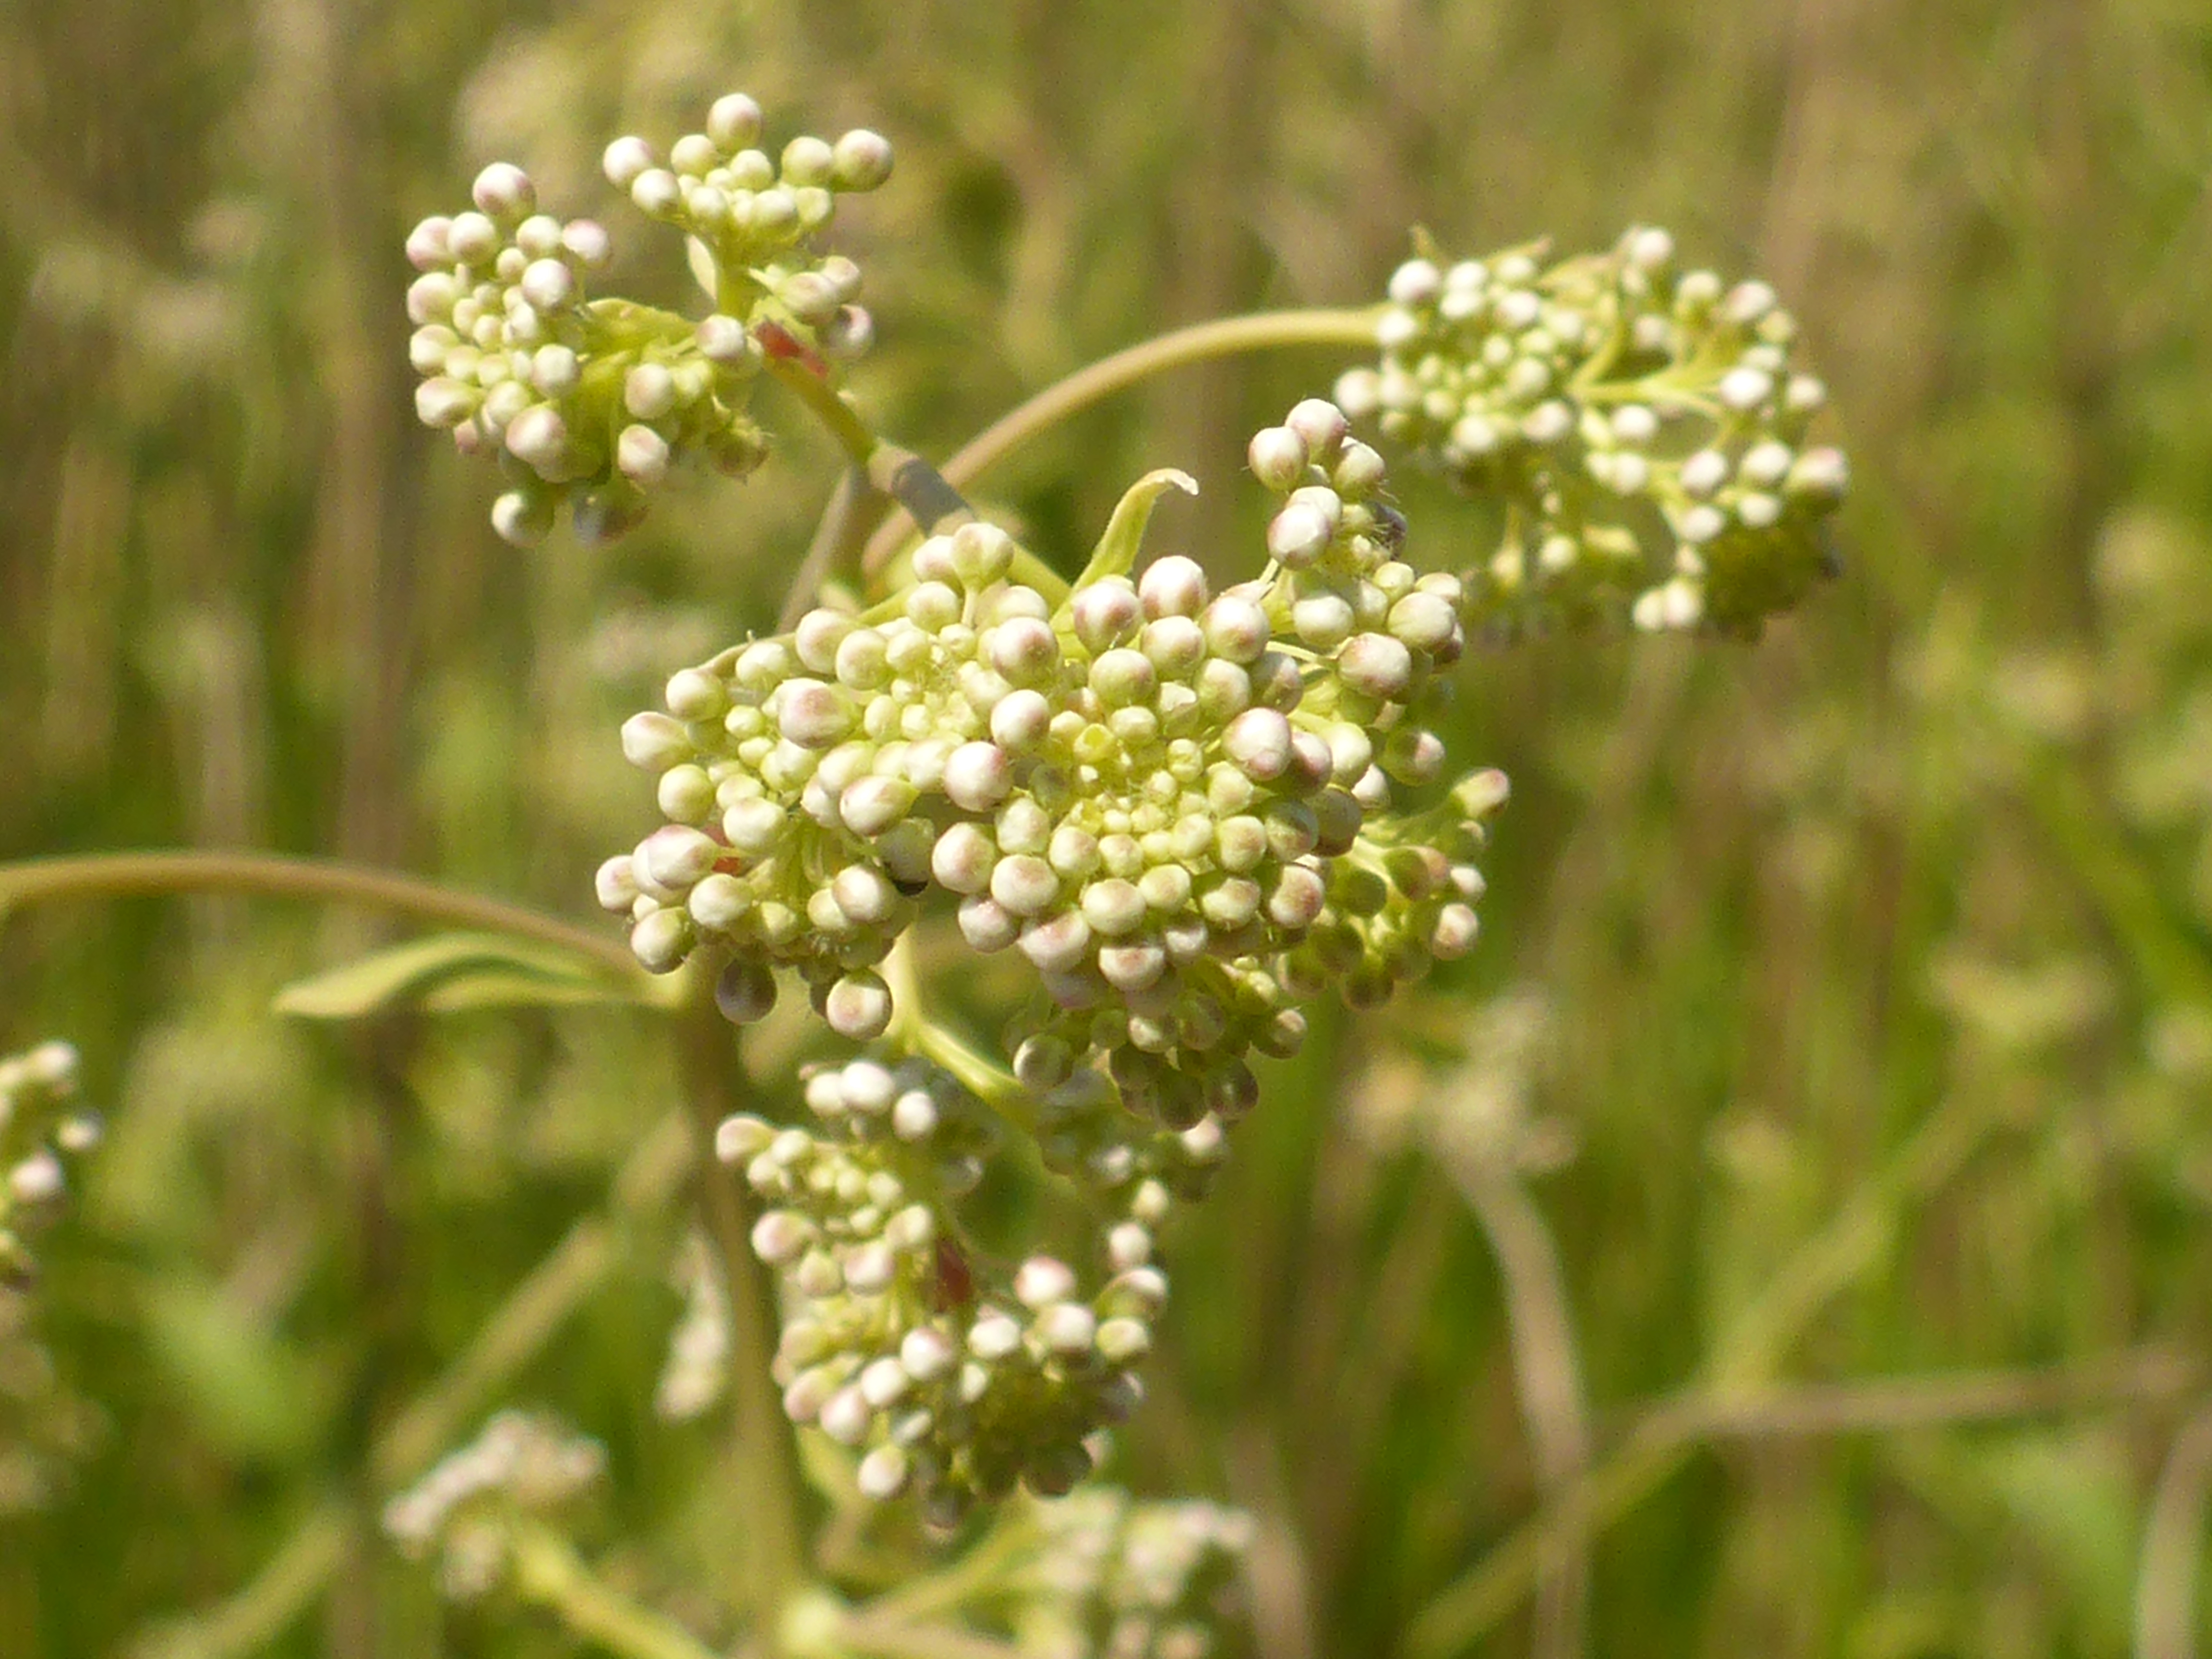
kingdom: Plantae
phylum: Tracheophyta
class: Magnoliopsida
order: Brassicales
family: Brassicaceae
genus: Lepidium
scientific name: Lepidium latifolium
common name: Strand-karse
